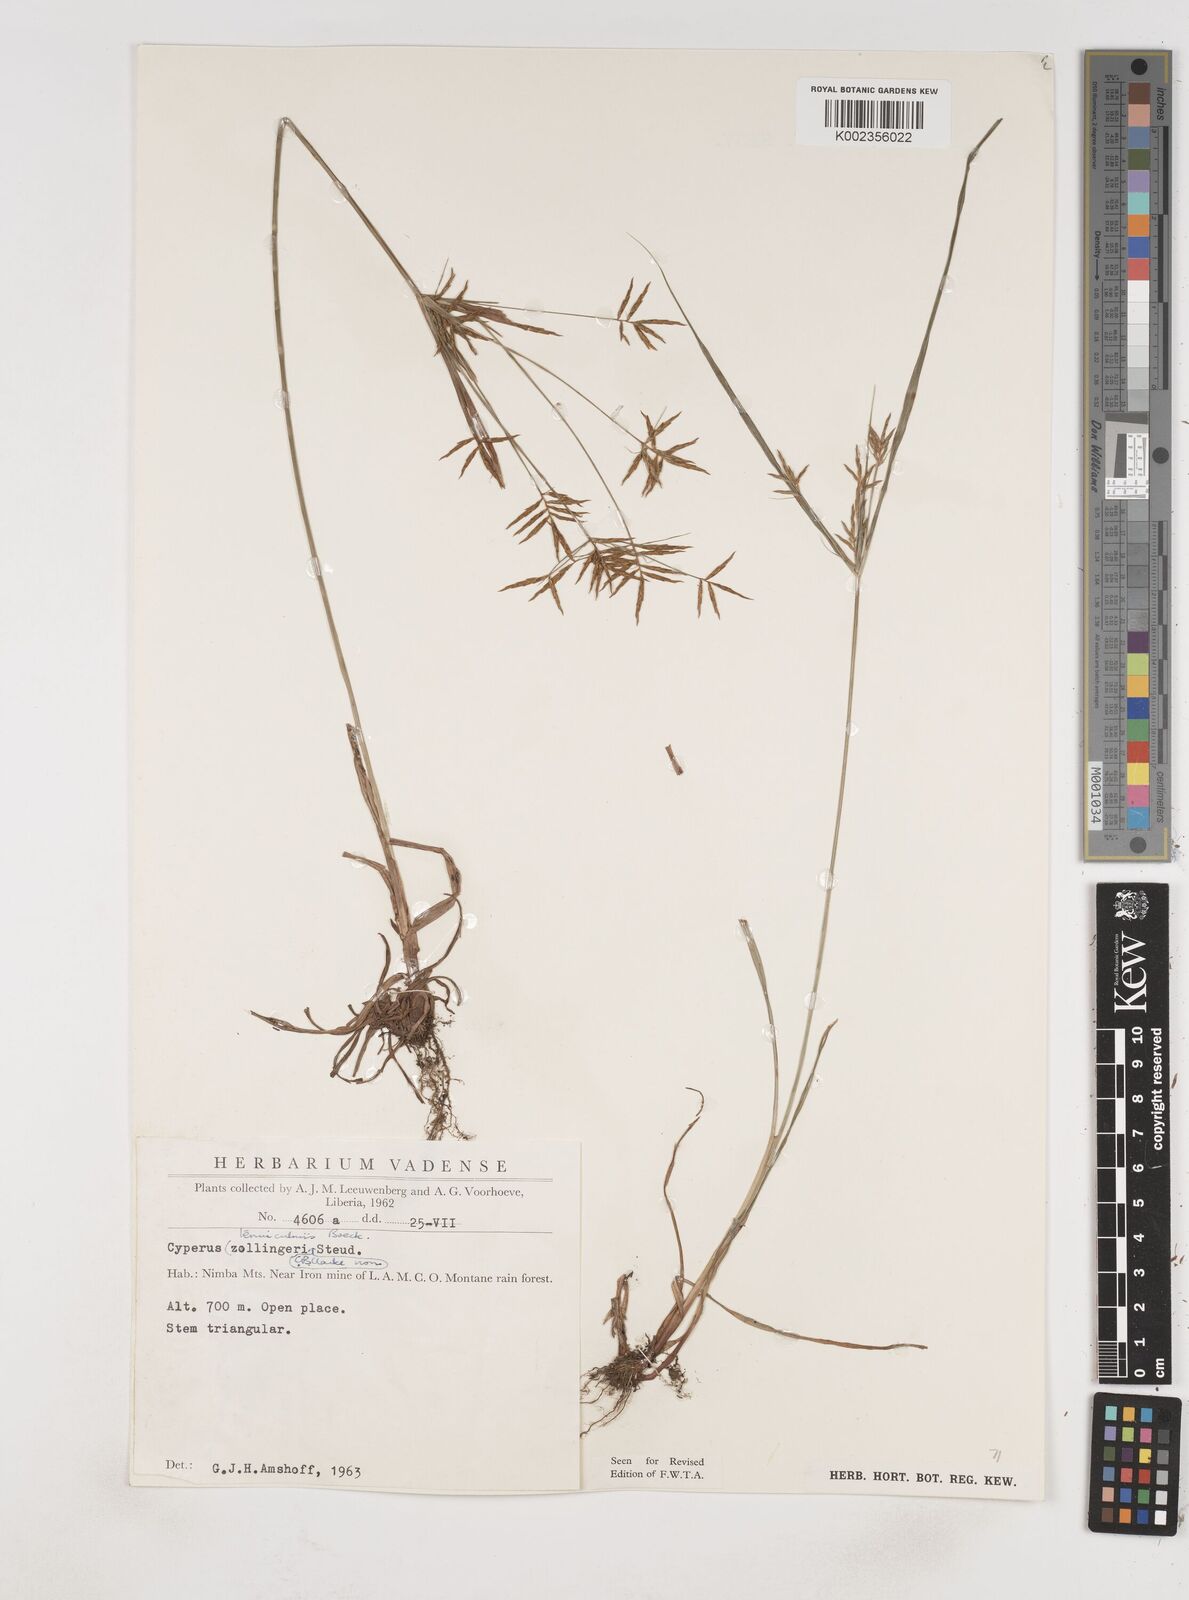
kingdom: Plantae
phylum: Tracheophyta
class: Liliopsida
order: Poales
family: Cyperaceae
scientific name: Cyperaceae
